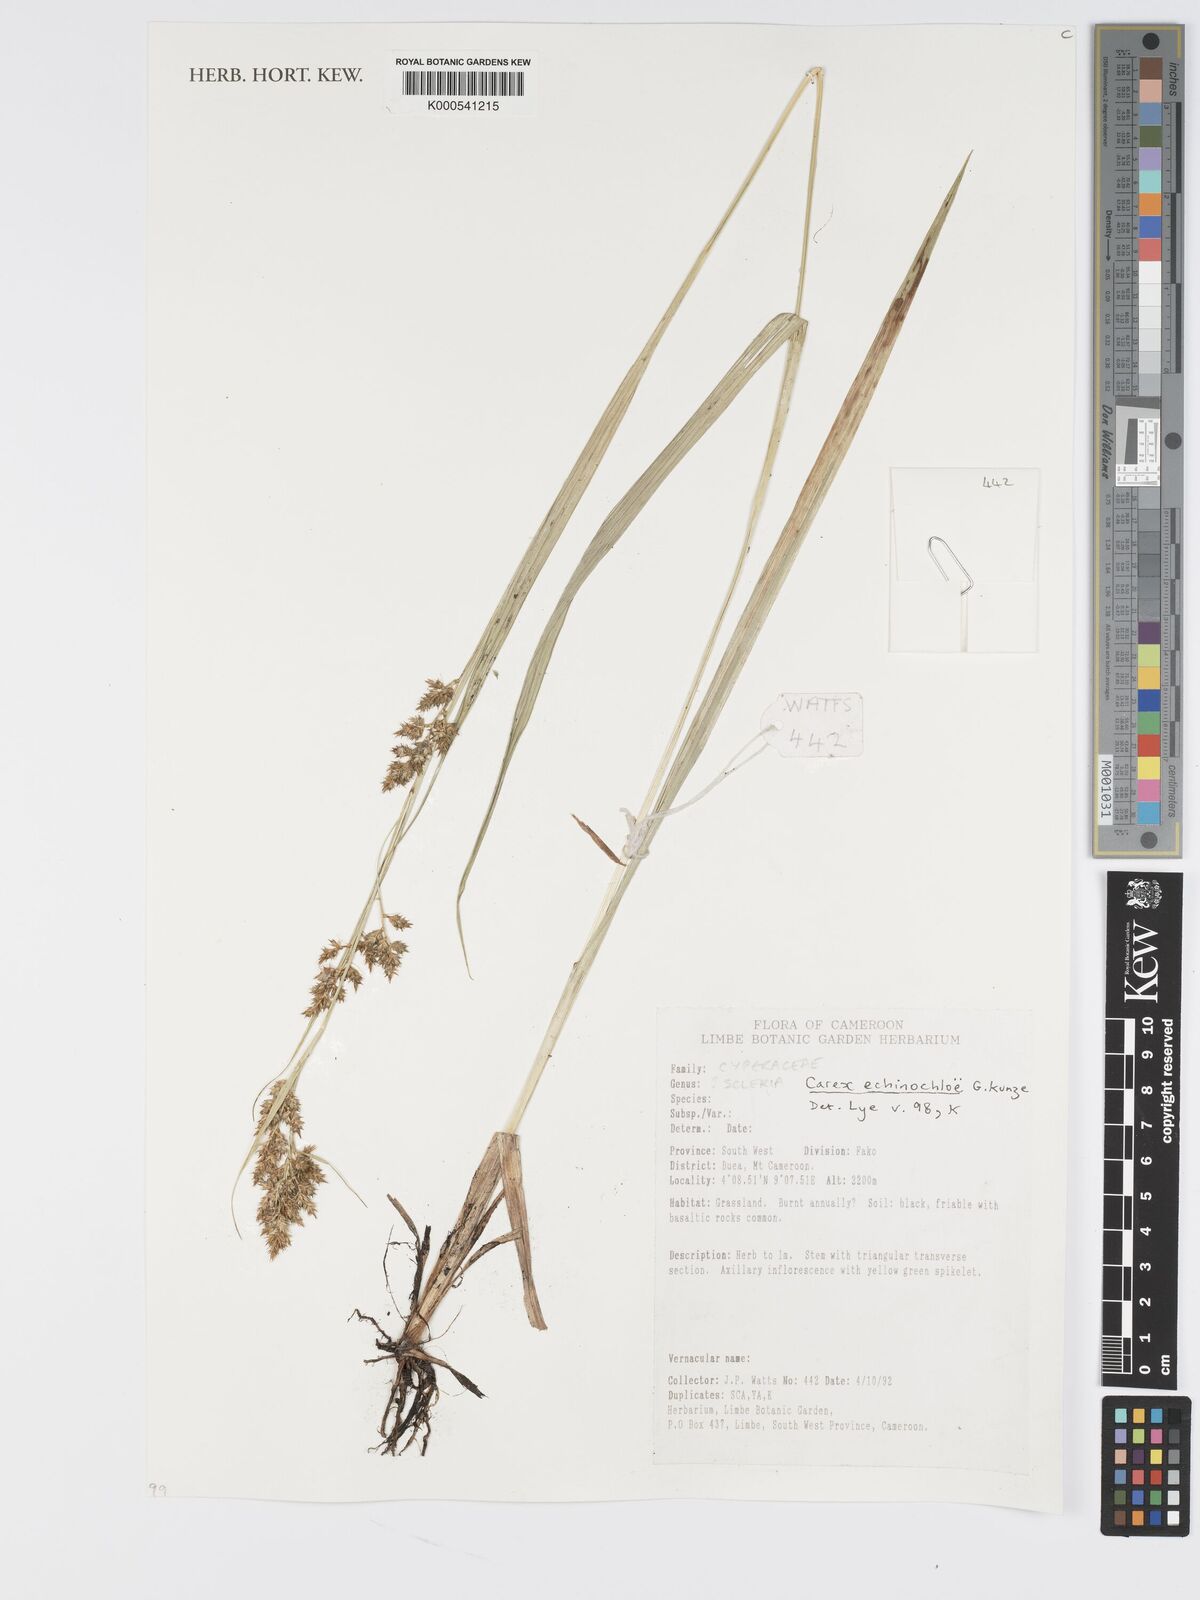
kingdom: Plantae
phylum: Tracheophyta
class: Liliopsida
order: Poales
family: Cyperaceae
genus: Carex
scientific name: Carex
